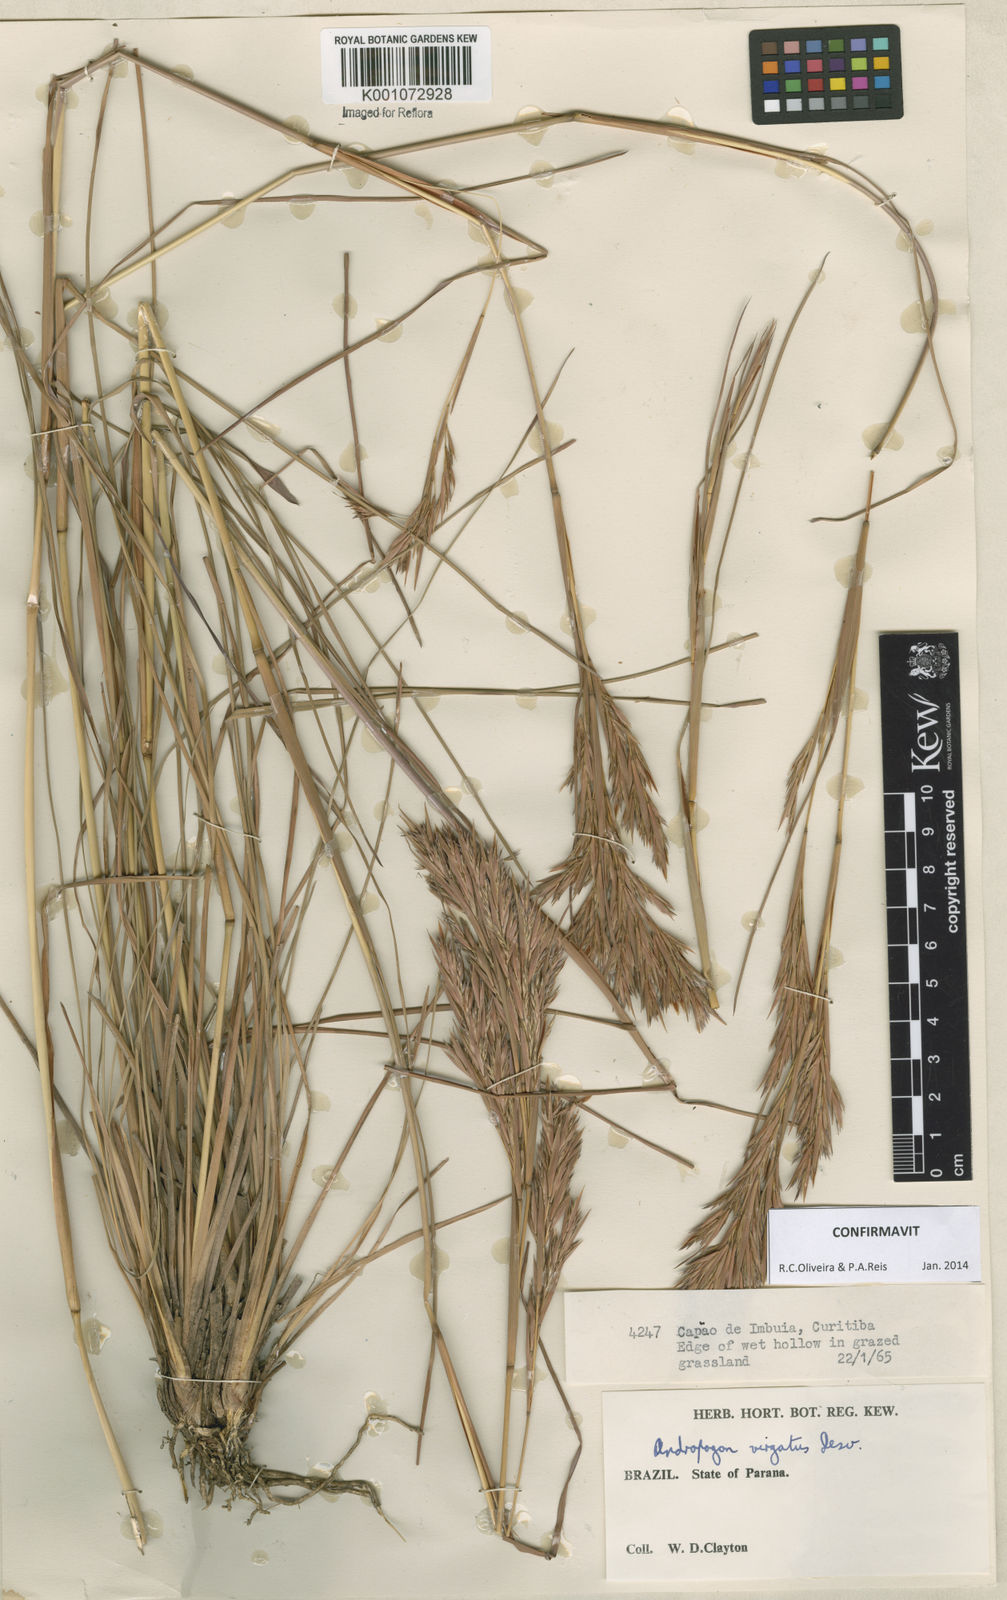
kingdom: Plantae
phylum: Tracheophyta
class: Liliopsida
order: Poales
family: Poaceae
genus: Andropogon
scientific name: Andropogon virgatus
